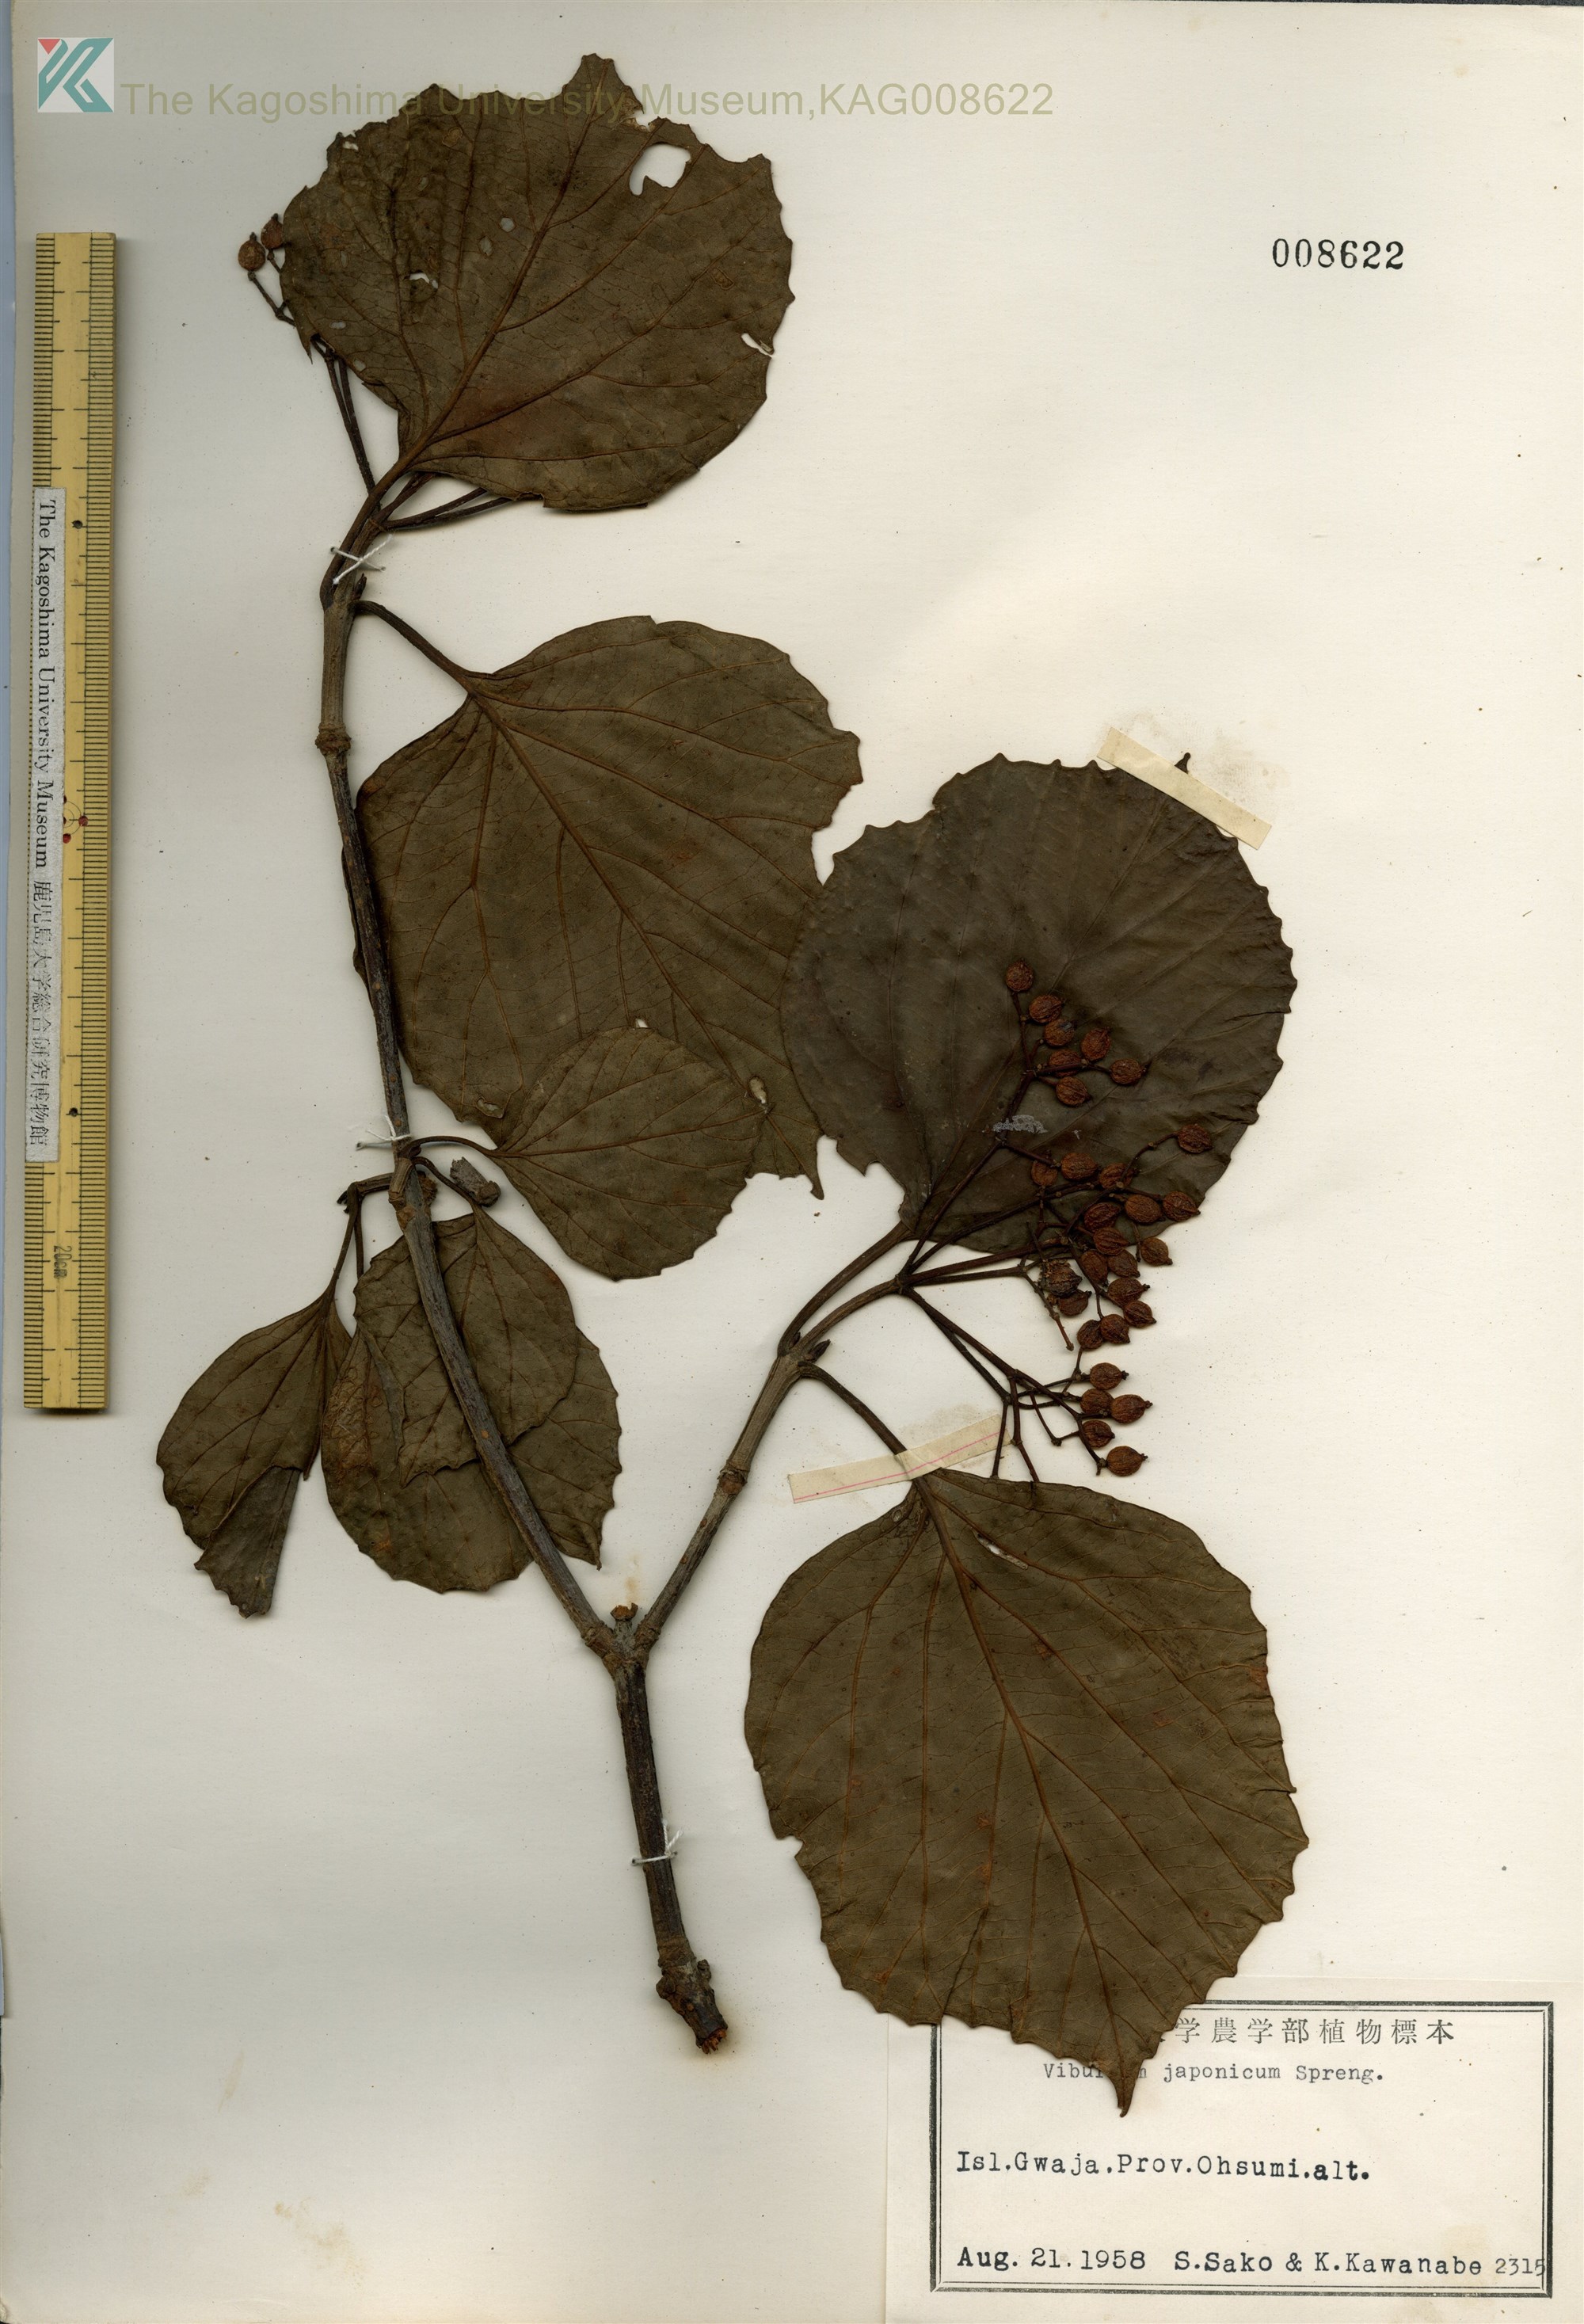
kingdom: Plantae
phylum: Tracheophyta
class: Magnoliopsida
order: Dipsacales
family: Viburnaceae
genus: Viburnum
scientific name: Viburnum japonicum
